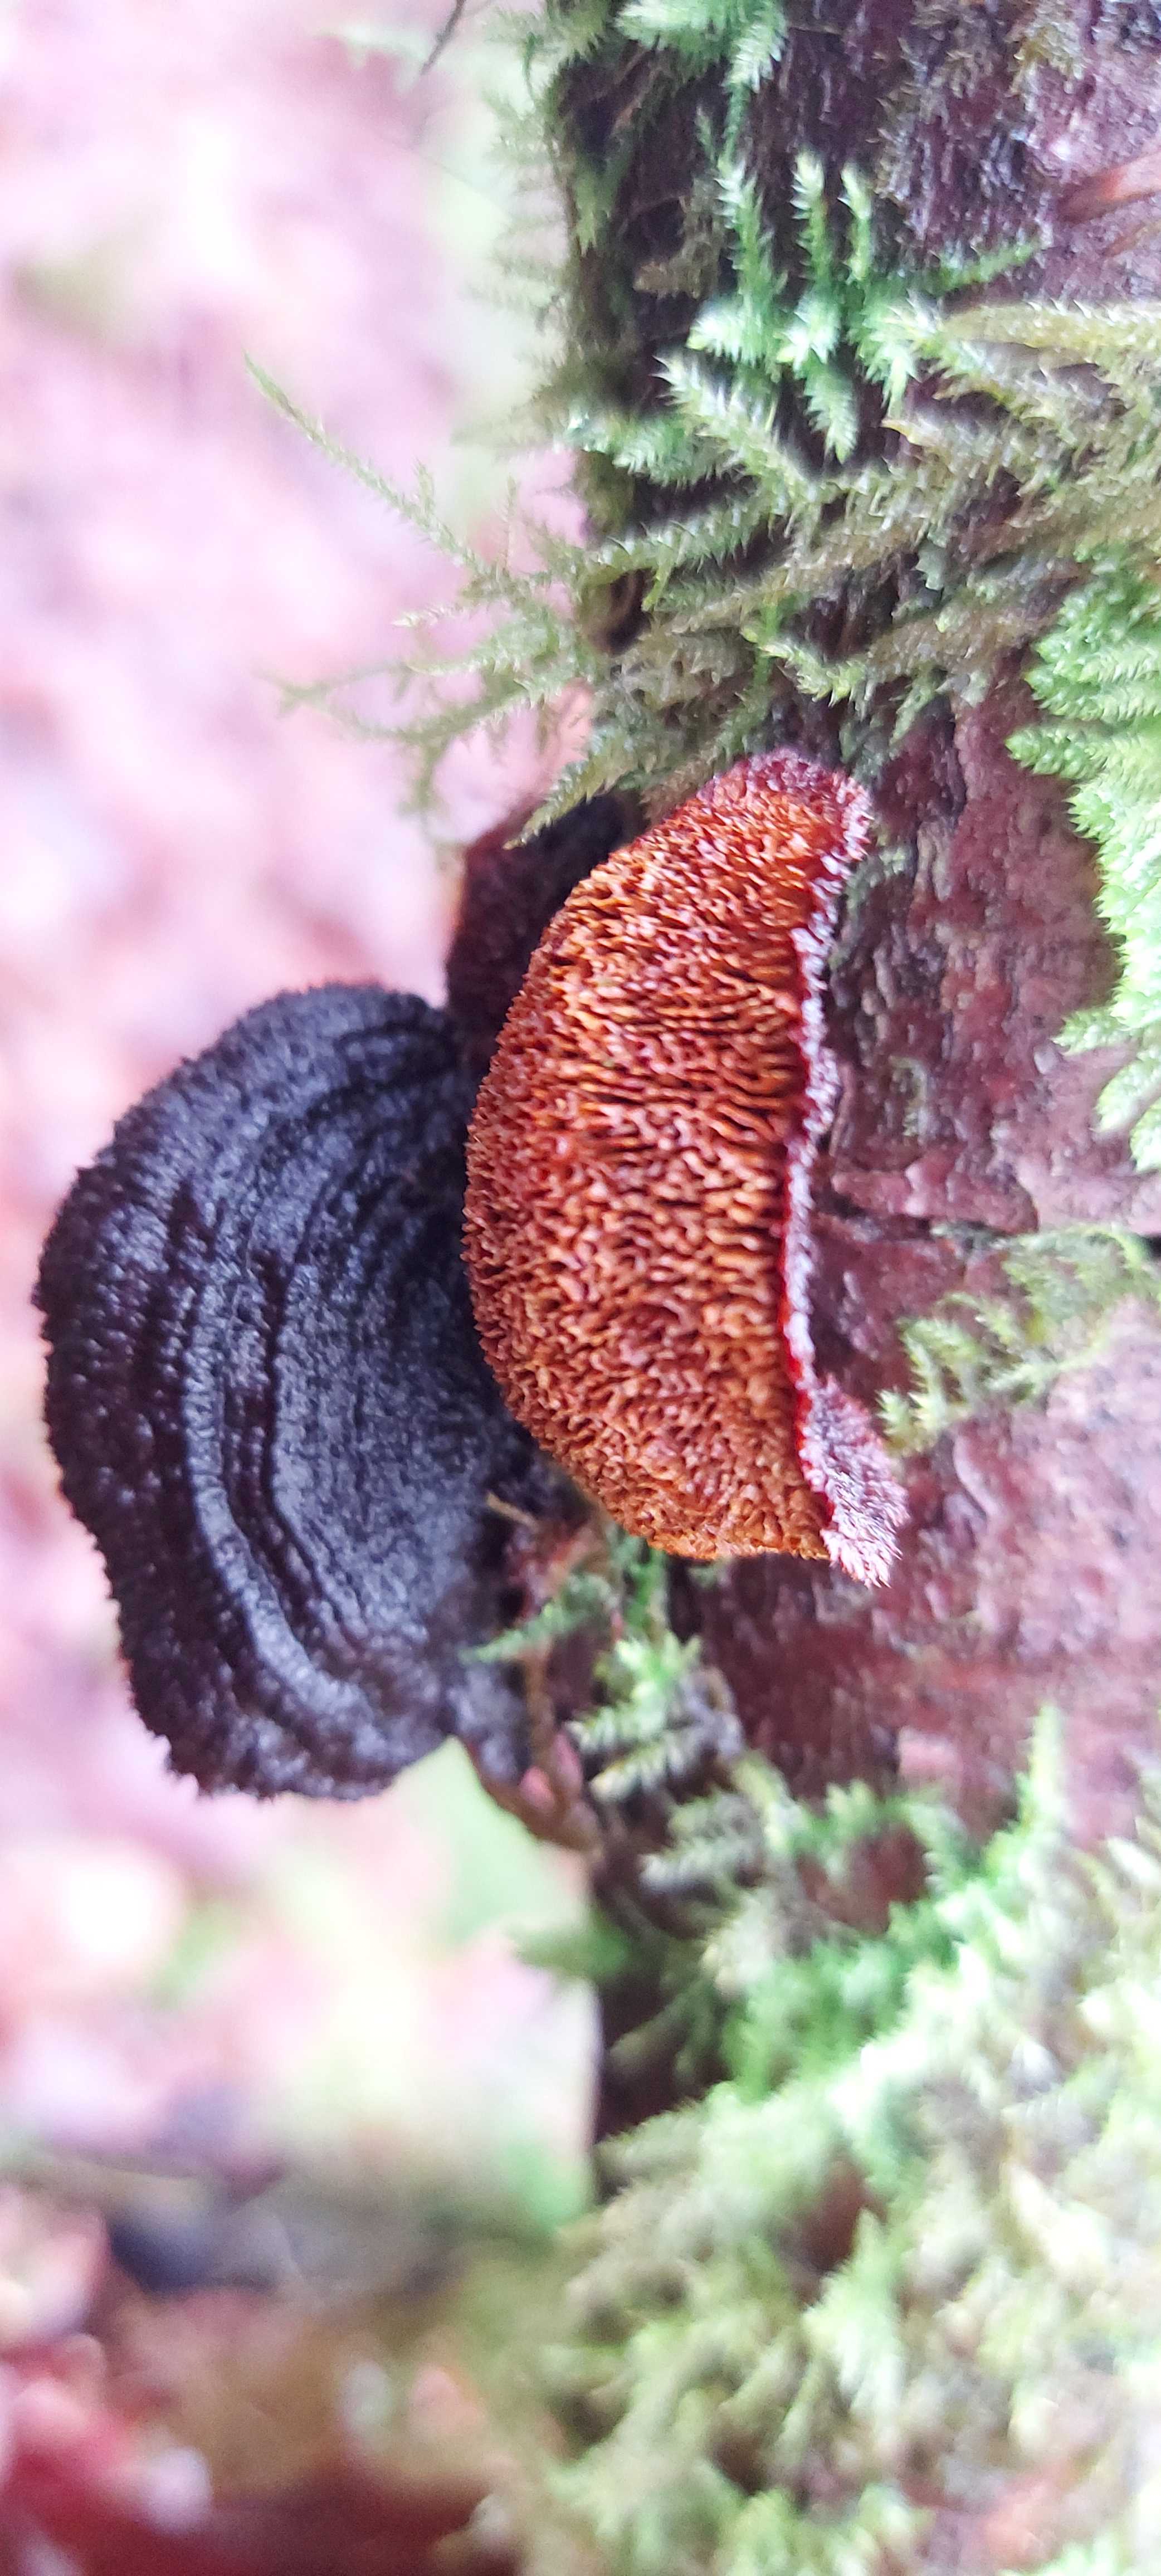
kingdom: Fungi
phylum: Basidiomycota
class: Agaricomycetes
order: Gloeophyllales
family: Gloeophyllaceae
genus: Gloeophyllum
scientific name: Gloeophyllum sepiarium
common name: fyrre-korkhat
